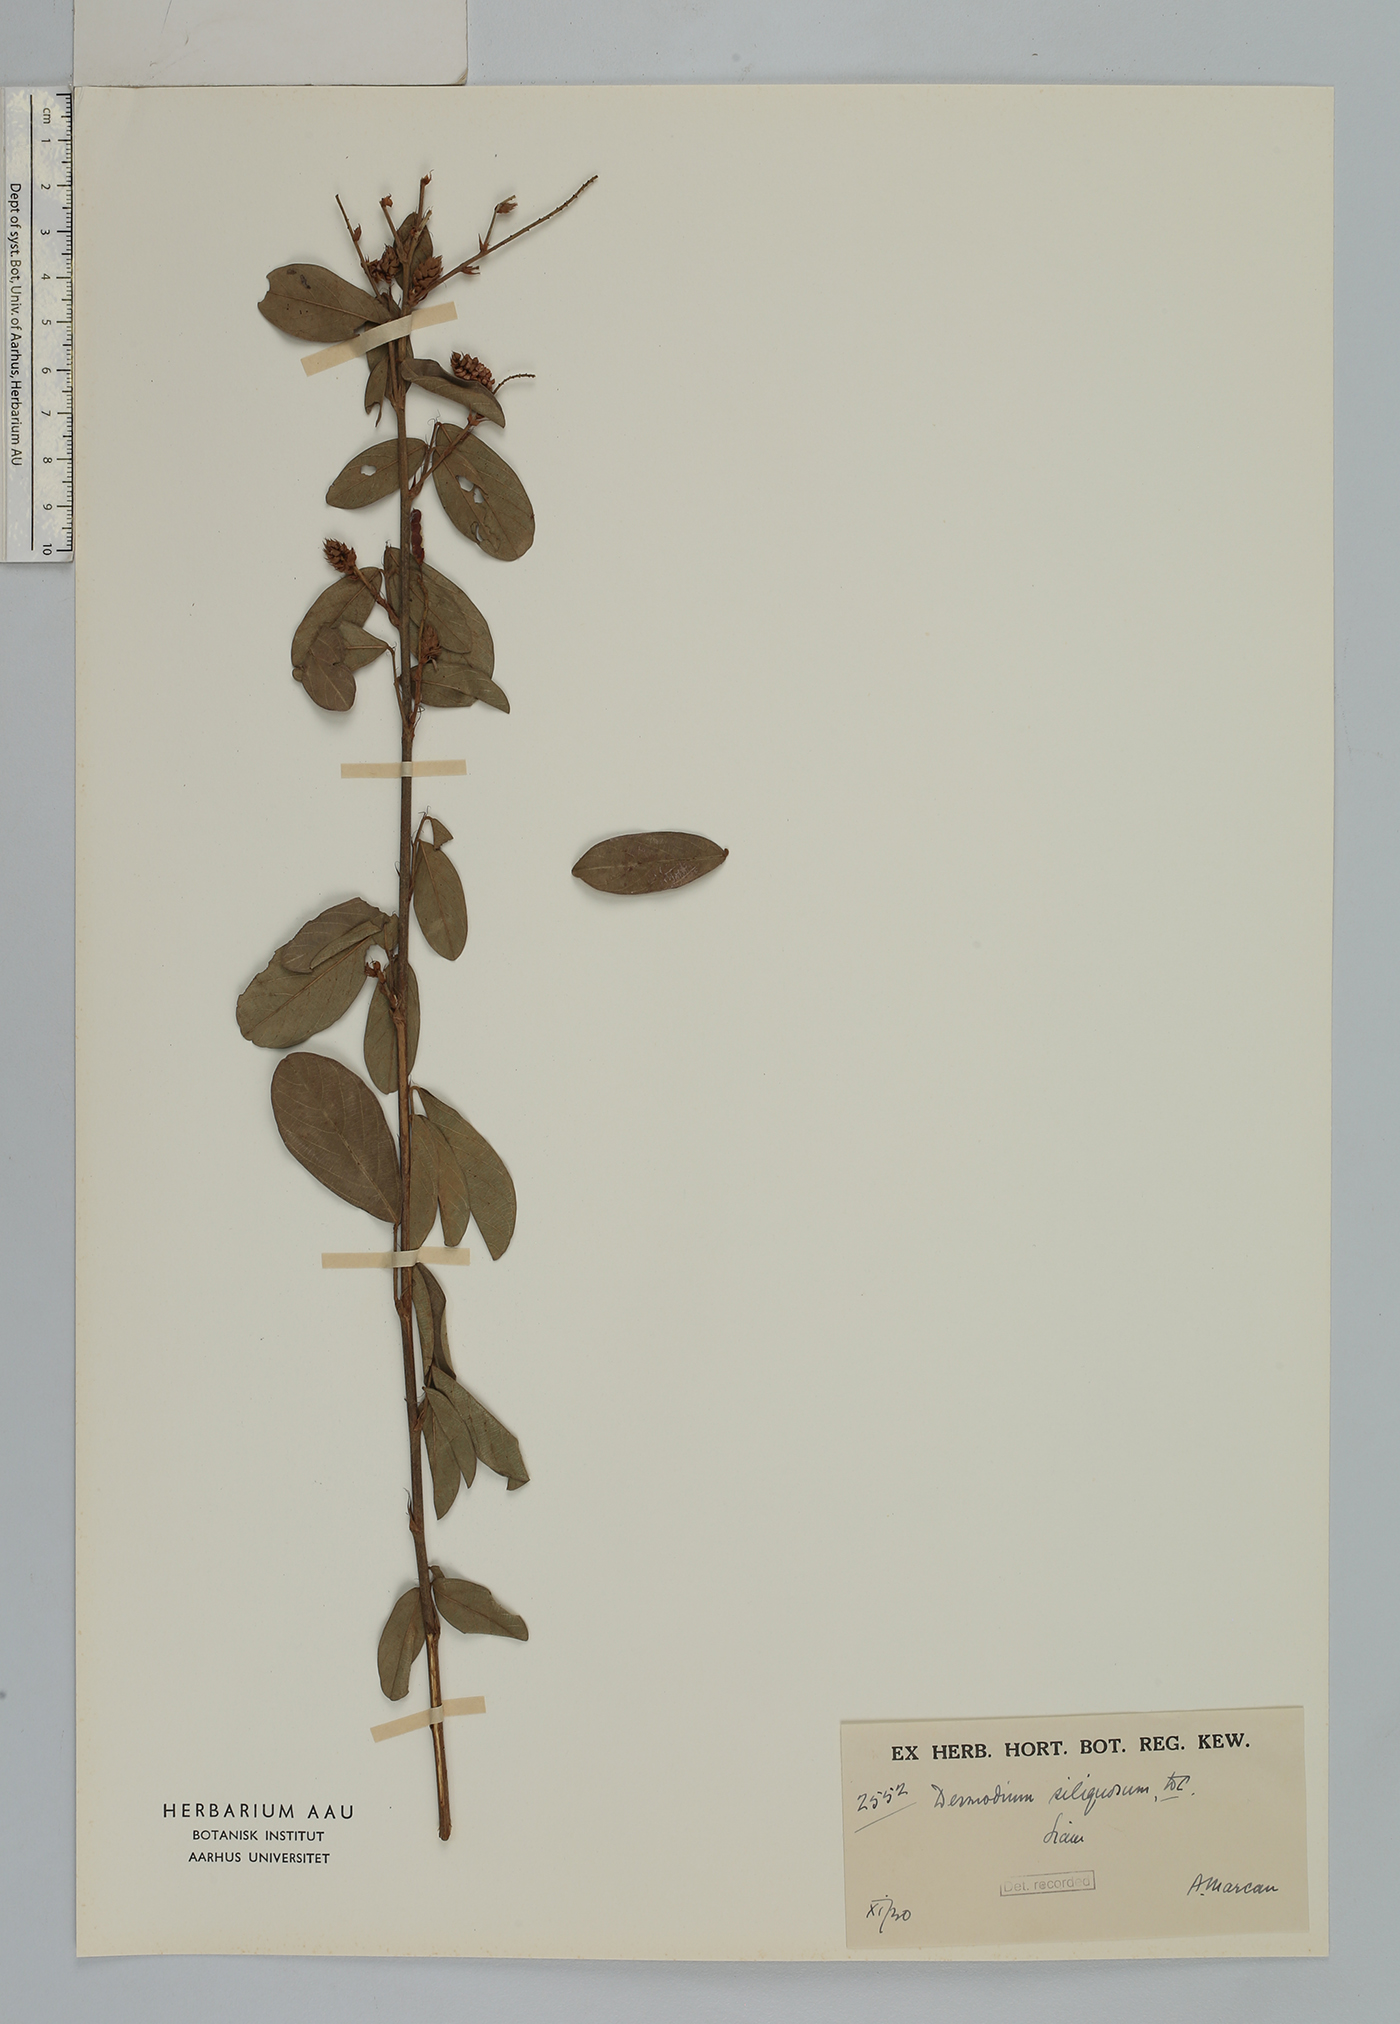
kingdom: Plantae
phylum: Tracheophyta
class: Magnoliopsida
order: Fabales
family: Fabaceae
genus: Grona
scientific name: Grona heterocarpos
